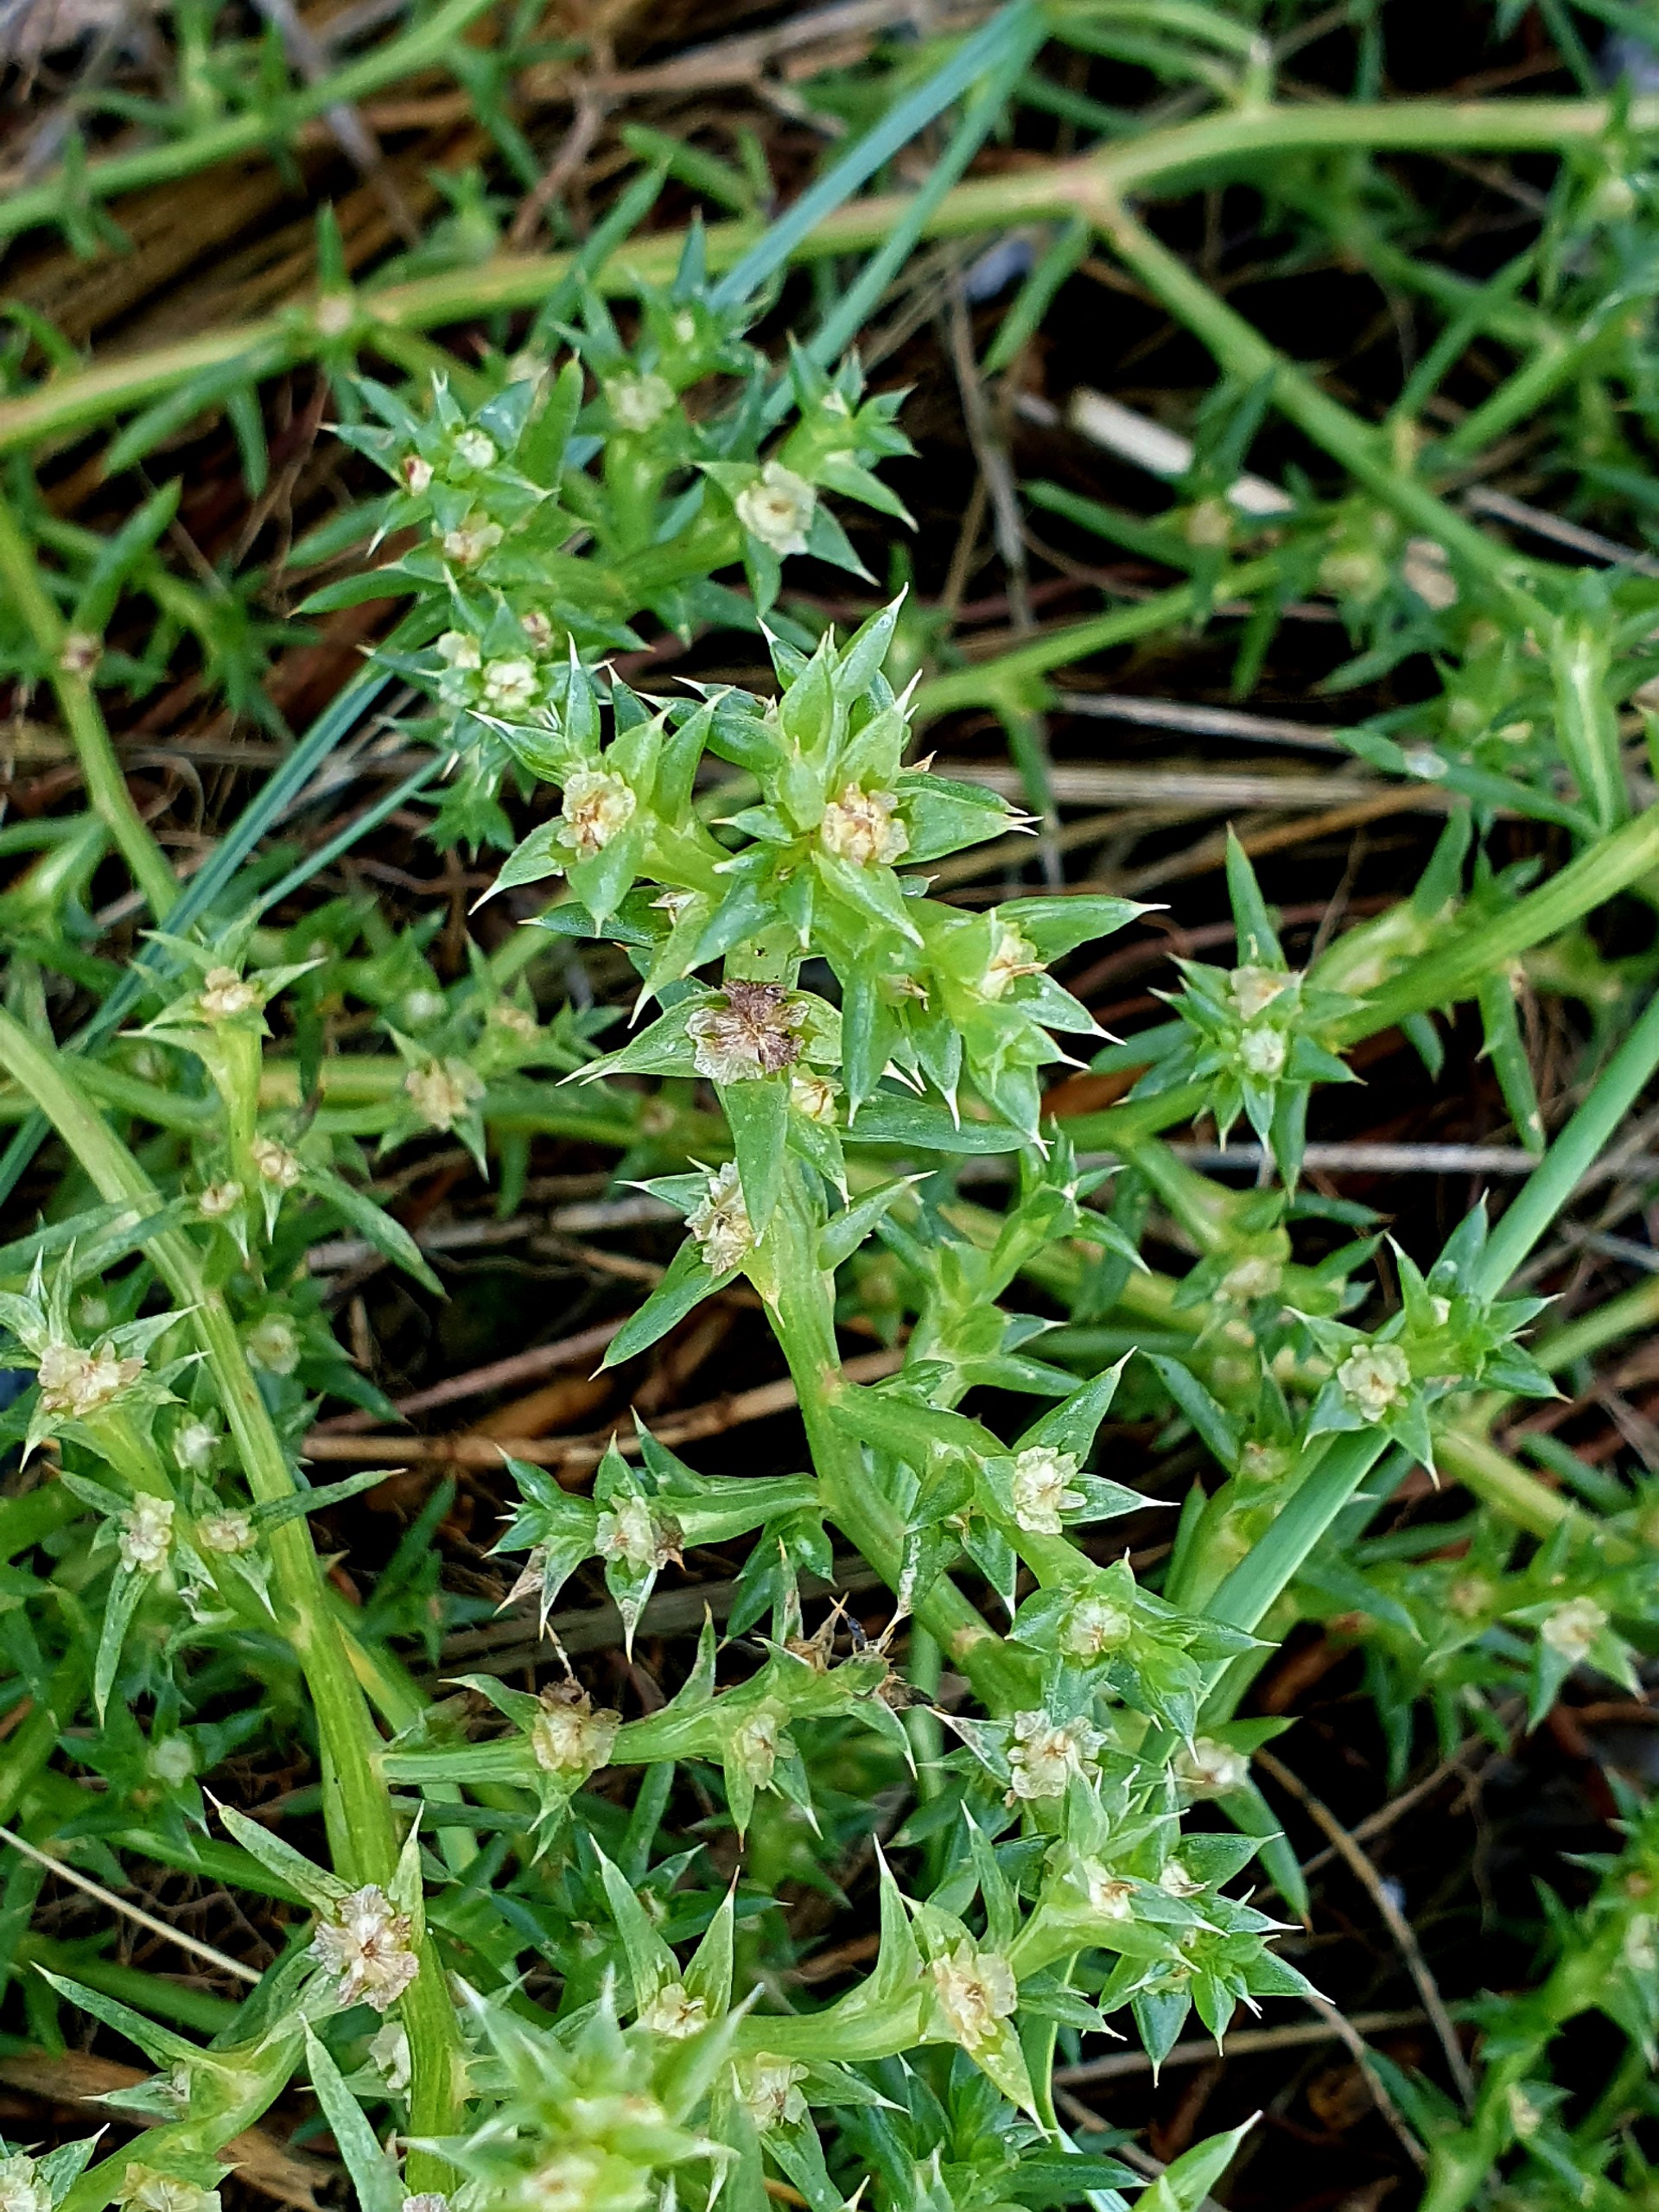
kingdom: Plantae
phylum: Tracheophyta
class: Magnoliopsida
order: Caryophyllales
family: Amaranthaceae
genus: Salsola
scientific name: Salsola kali
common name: Sodaurt
